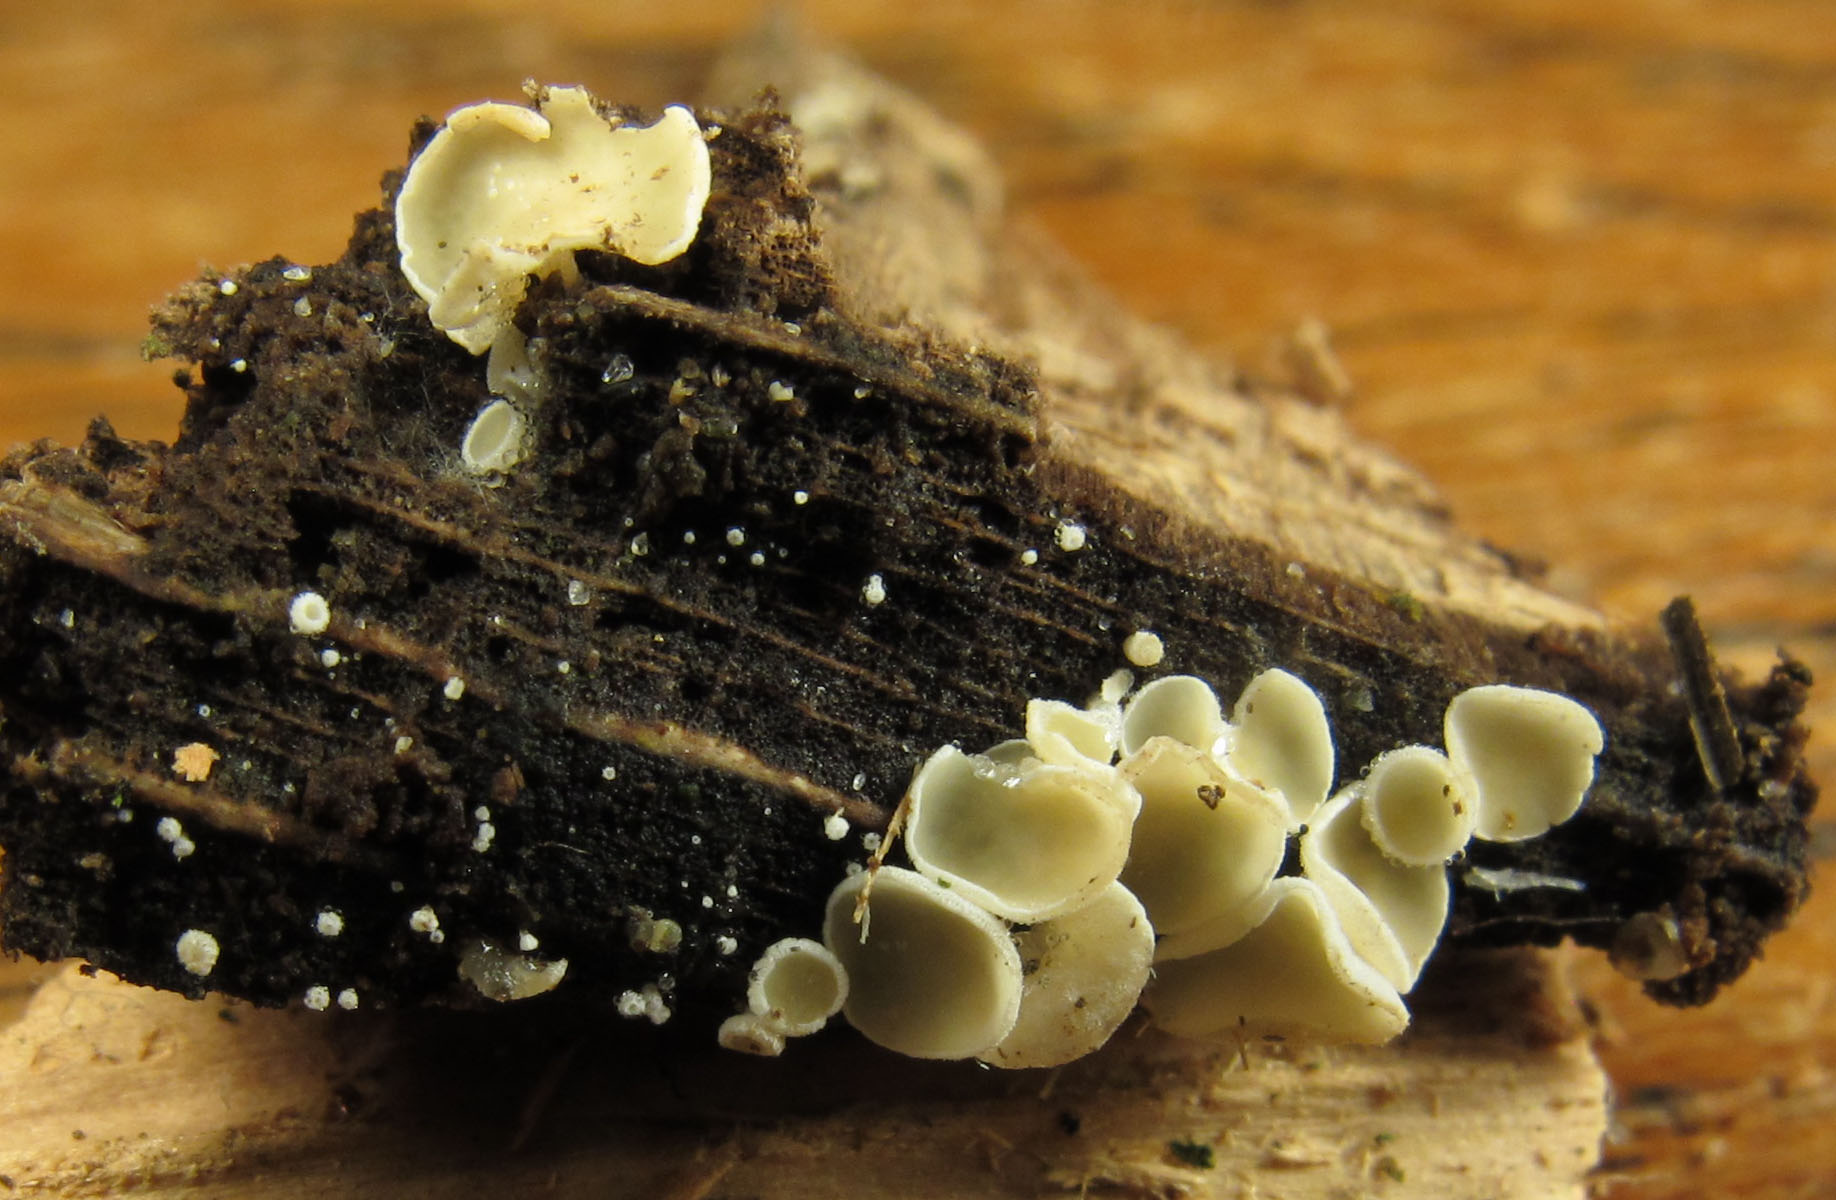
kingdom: Fungi
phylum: Ascomycota
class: Leotiomycetes
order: Helotiales
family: Lachnaceae
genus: Lachnum
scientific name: Lachnum impudicum
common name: vinter-frynseskive
